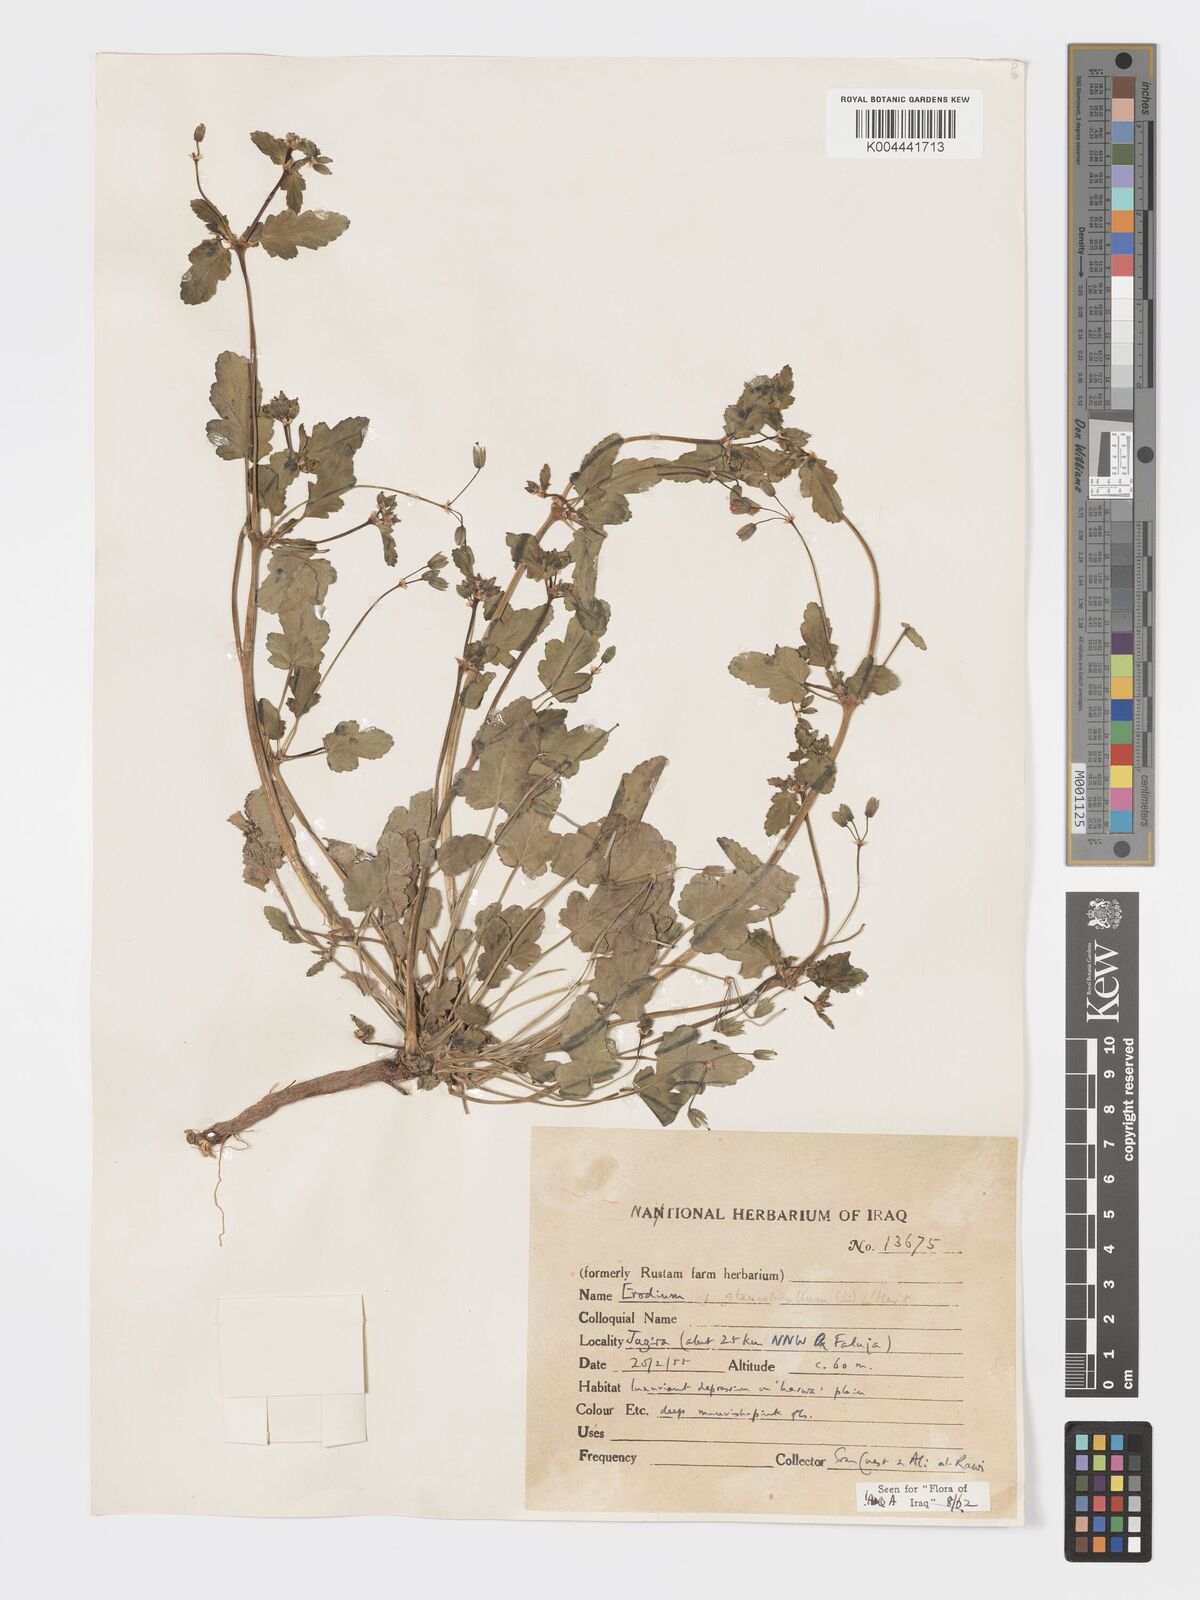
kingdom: Plantae
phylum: Tracheophyta
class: Magnoliopsida
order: Geraniales
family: Geraniaceae
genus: Erodium
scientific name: Erodium glaucophyllum
